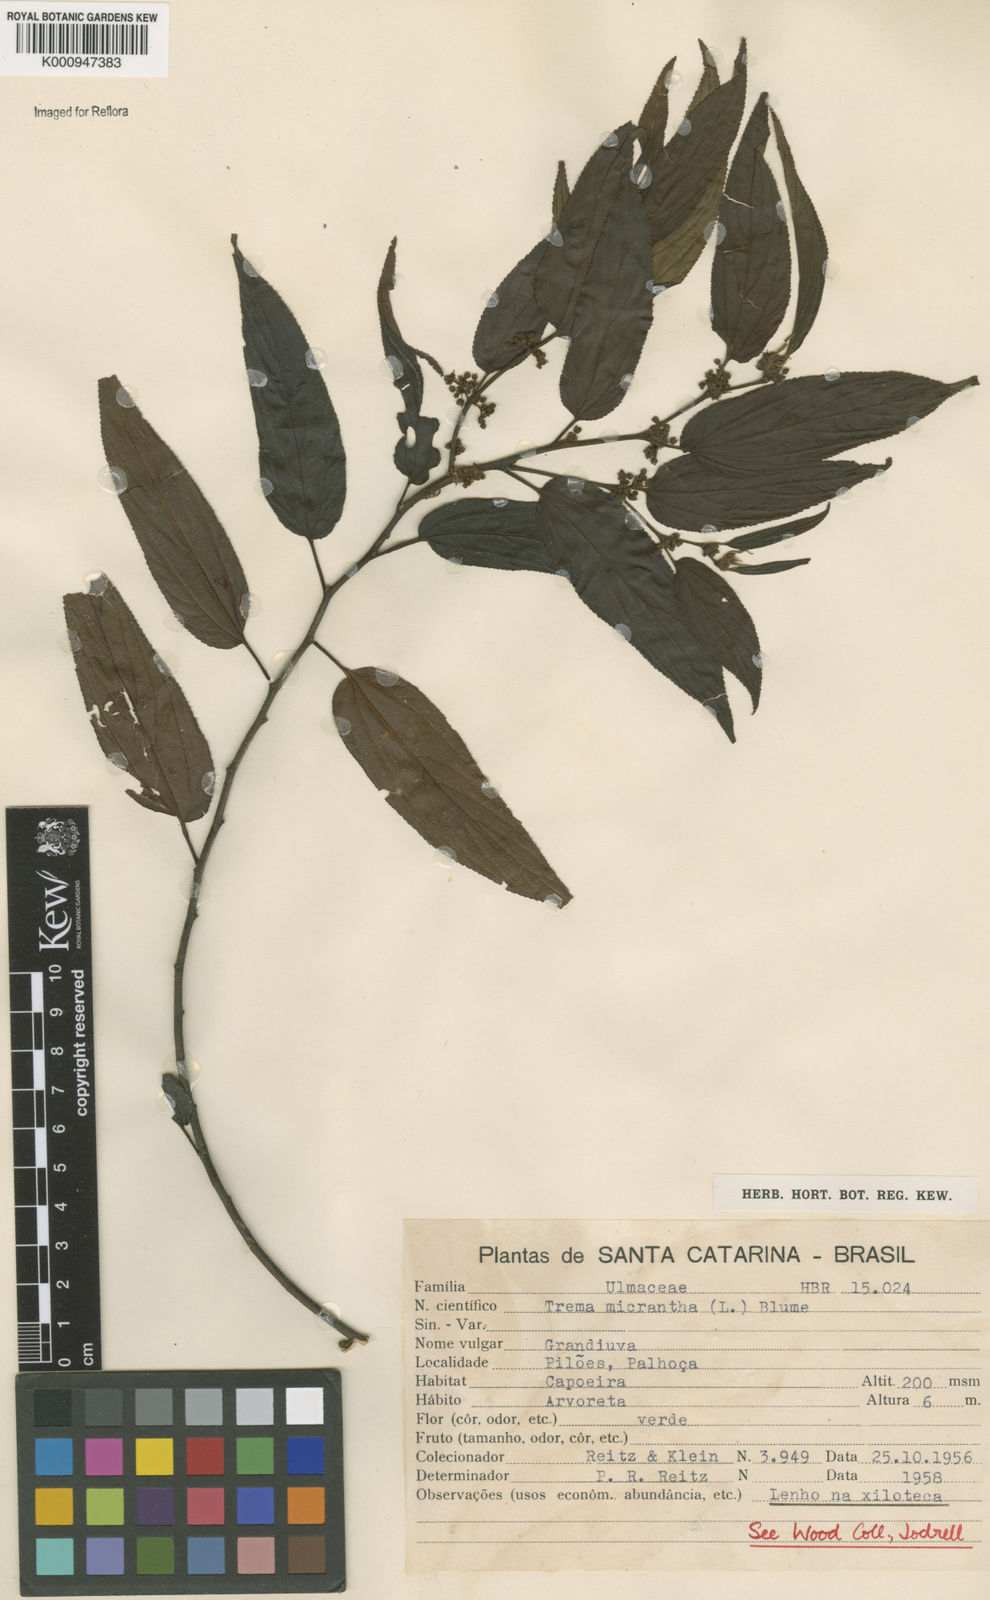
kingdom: Plantae
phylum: Tracheophyta
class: Magnoliopsida
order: Rosales
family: Cannabaceae
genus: Trema
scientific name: Trema micranthum
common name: Jamaican nettletree
